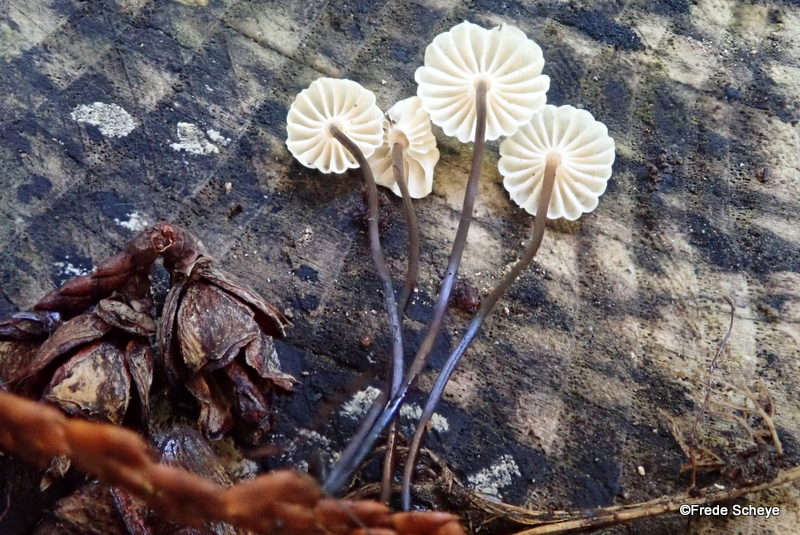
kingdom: Fungi
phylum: Basidiomycota
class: Agaricomycetes
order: Agaricales
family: Marasmiaceae
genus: Marasmius
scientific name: Marasmius rotula
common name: hjul-bruskhat
